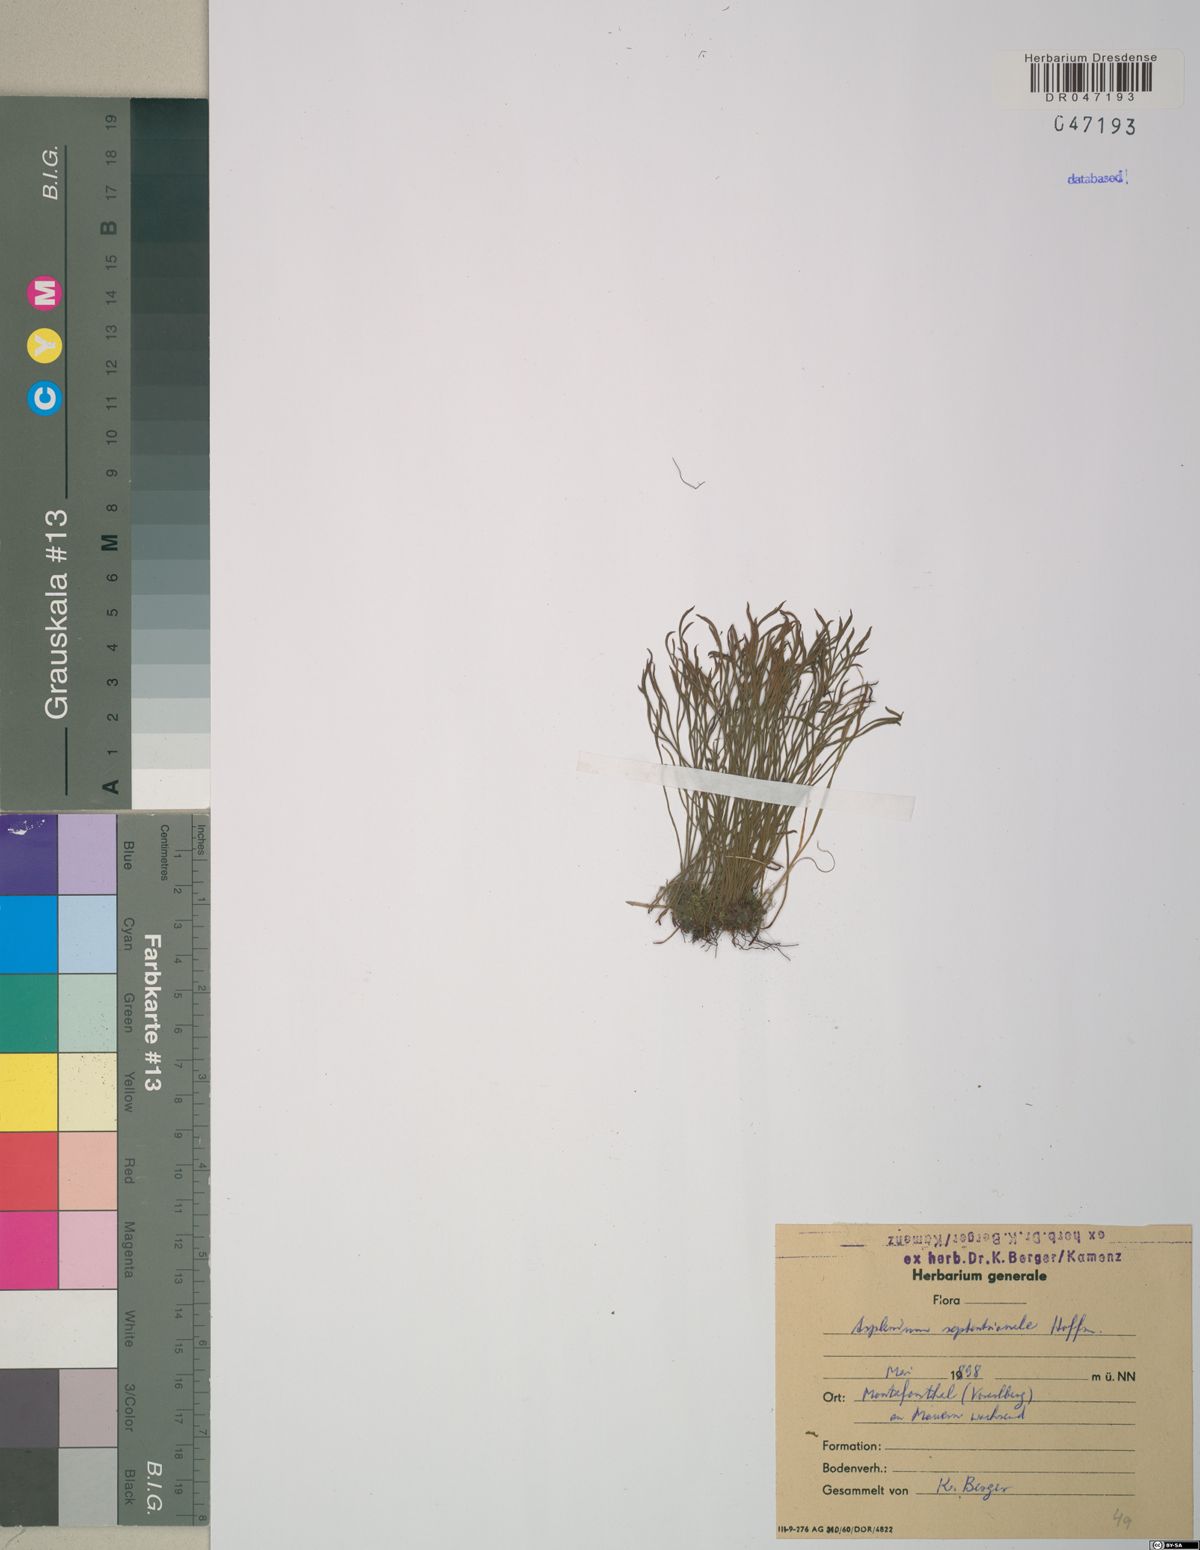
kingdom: Plantae
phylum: Tracheophyta
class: Polypodiopsida
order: Polypodiales
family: Aspleniaceae
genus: Asplenium
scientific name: Asplenium septentrionale
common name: Forked spleenwort
